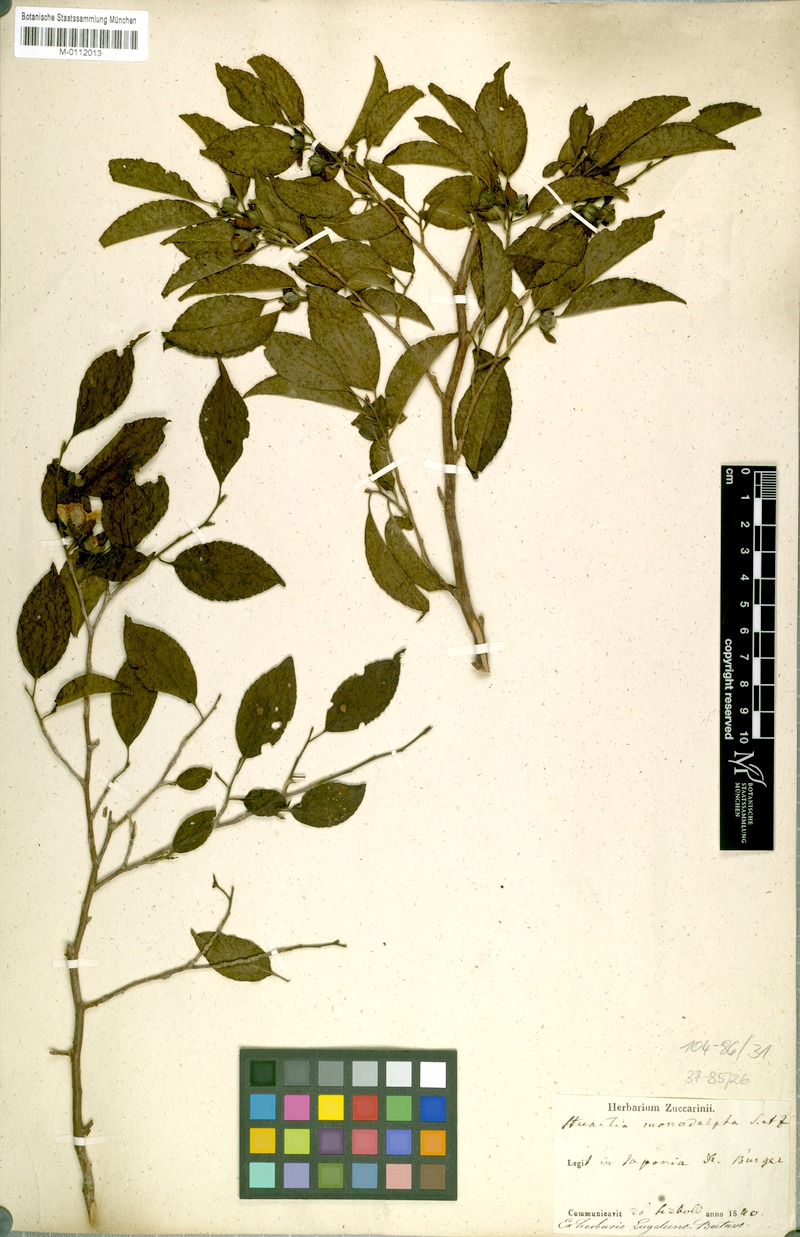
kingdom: Plantae
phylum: Tracheophyta
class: Magnoliopsida
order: Ericales
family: Theaceae
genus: Stewartia
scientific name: Stewartia monadelpha
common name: Tall stewartia
